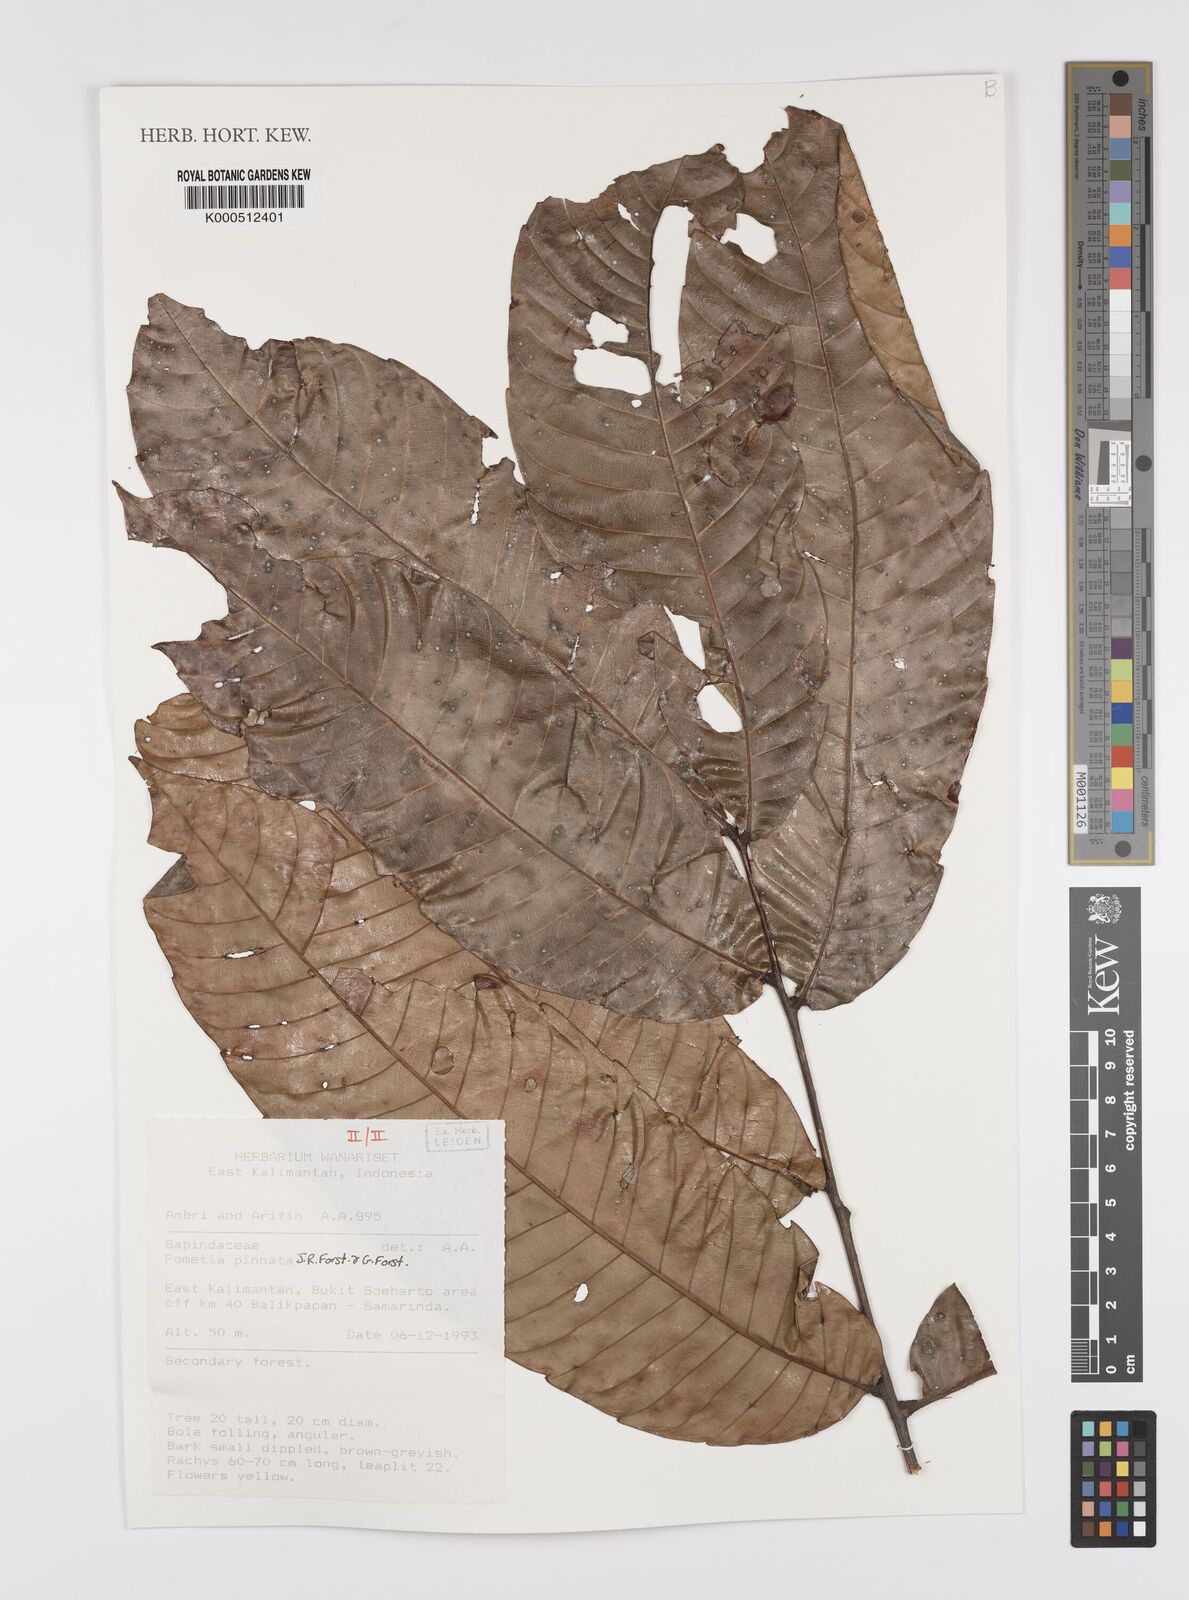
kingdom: Plantae
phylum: Tracheophyta
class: Magnoliopsida
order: Sapindales
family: Sapindaceae
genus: Pometia
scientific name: Pometia pinnata
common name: Oceanic lychee
